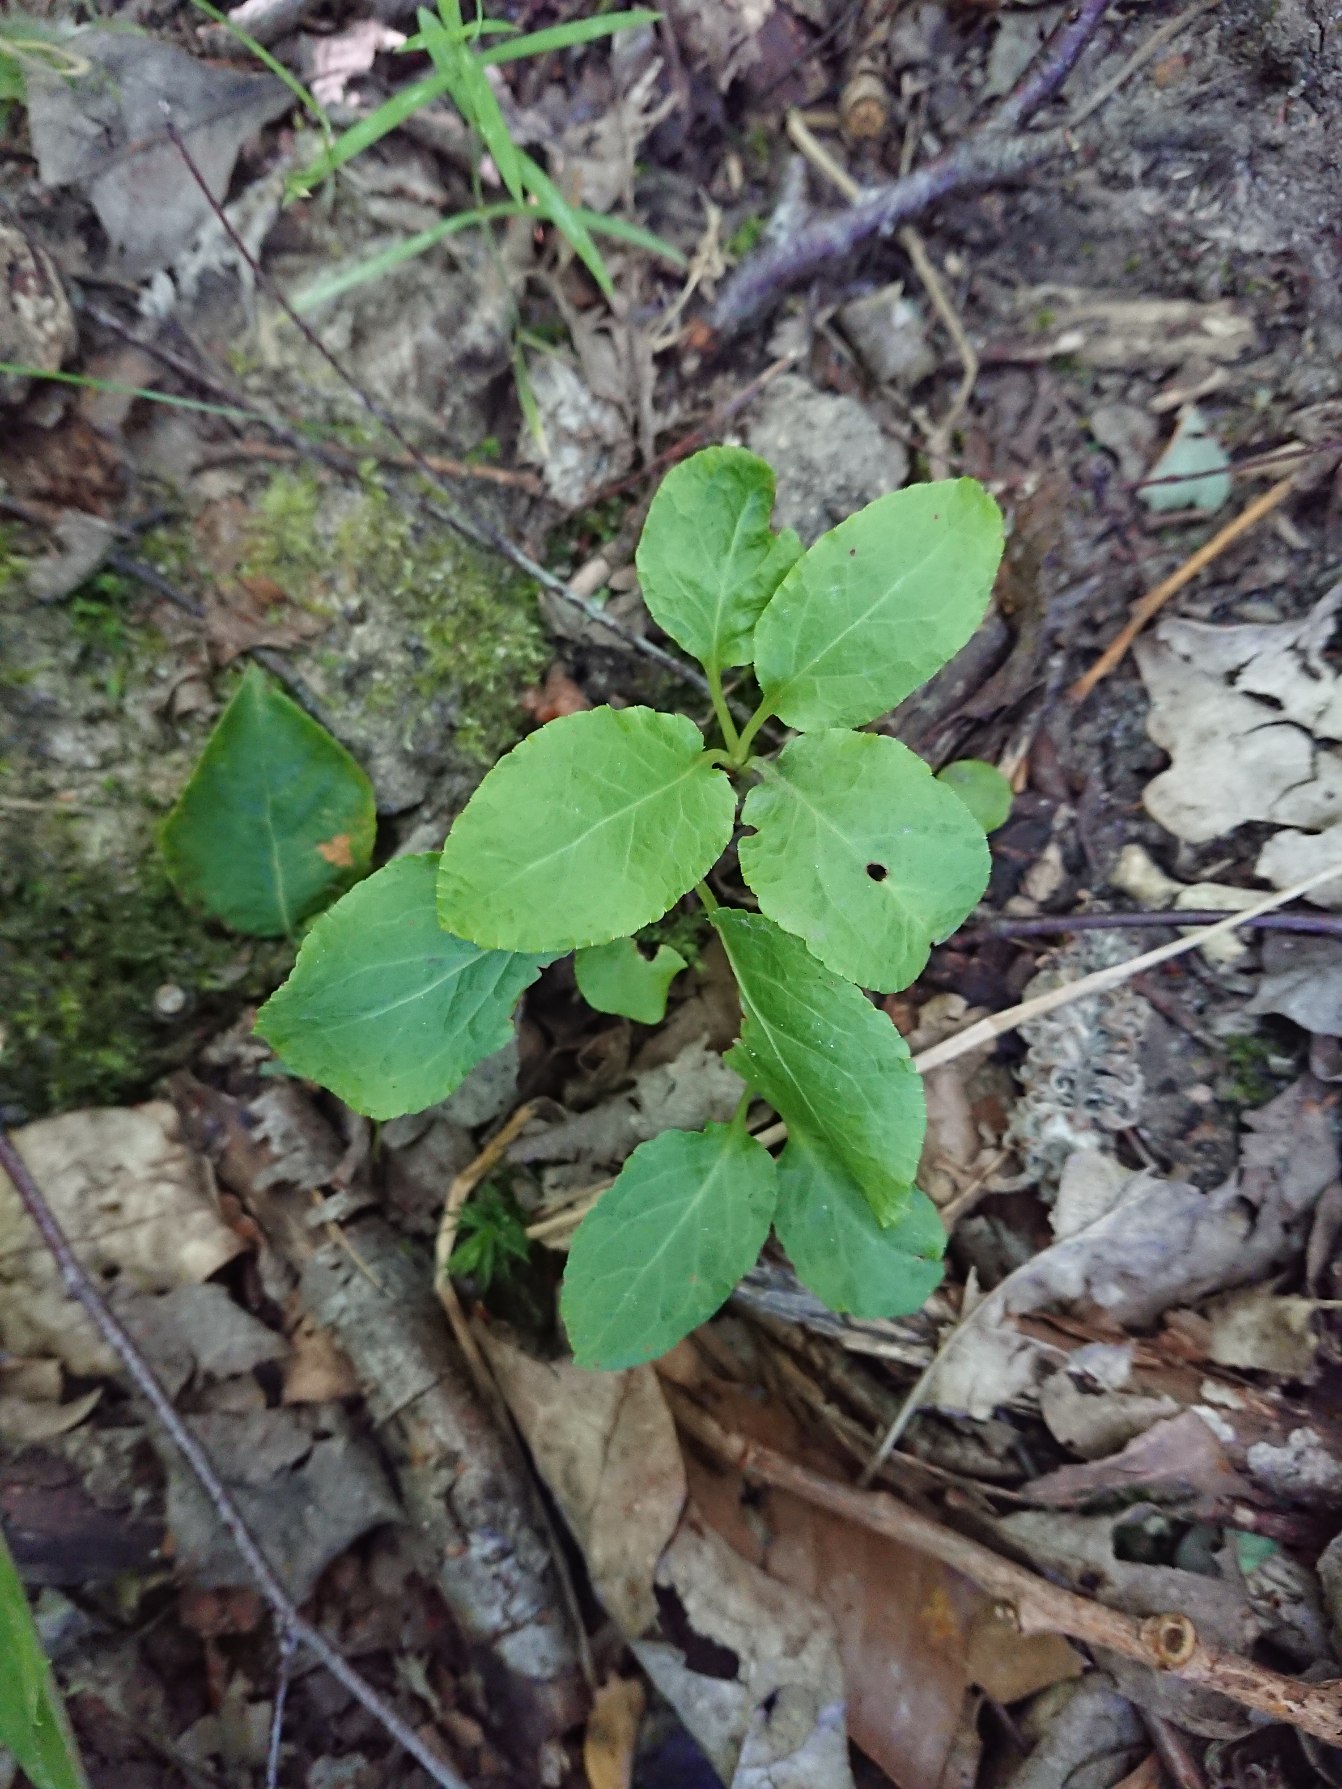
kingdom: Plantae
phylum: Tracheophyta
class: Magnoliopsida
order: Ericales
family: Ericaceae
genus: Pyrola
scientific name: Pyrola minor
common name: Liden vintergrøn
